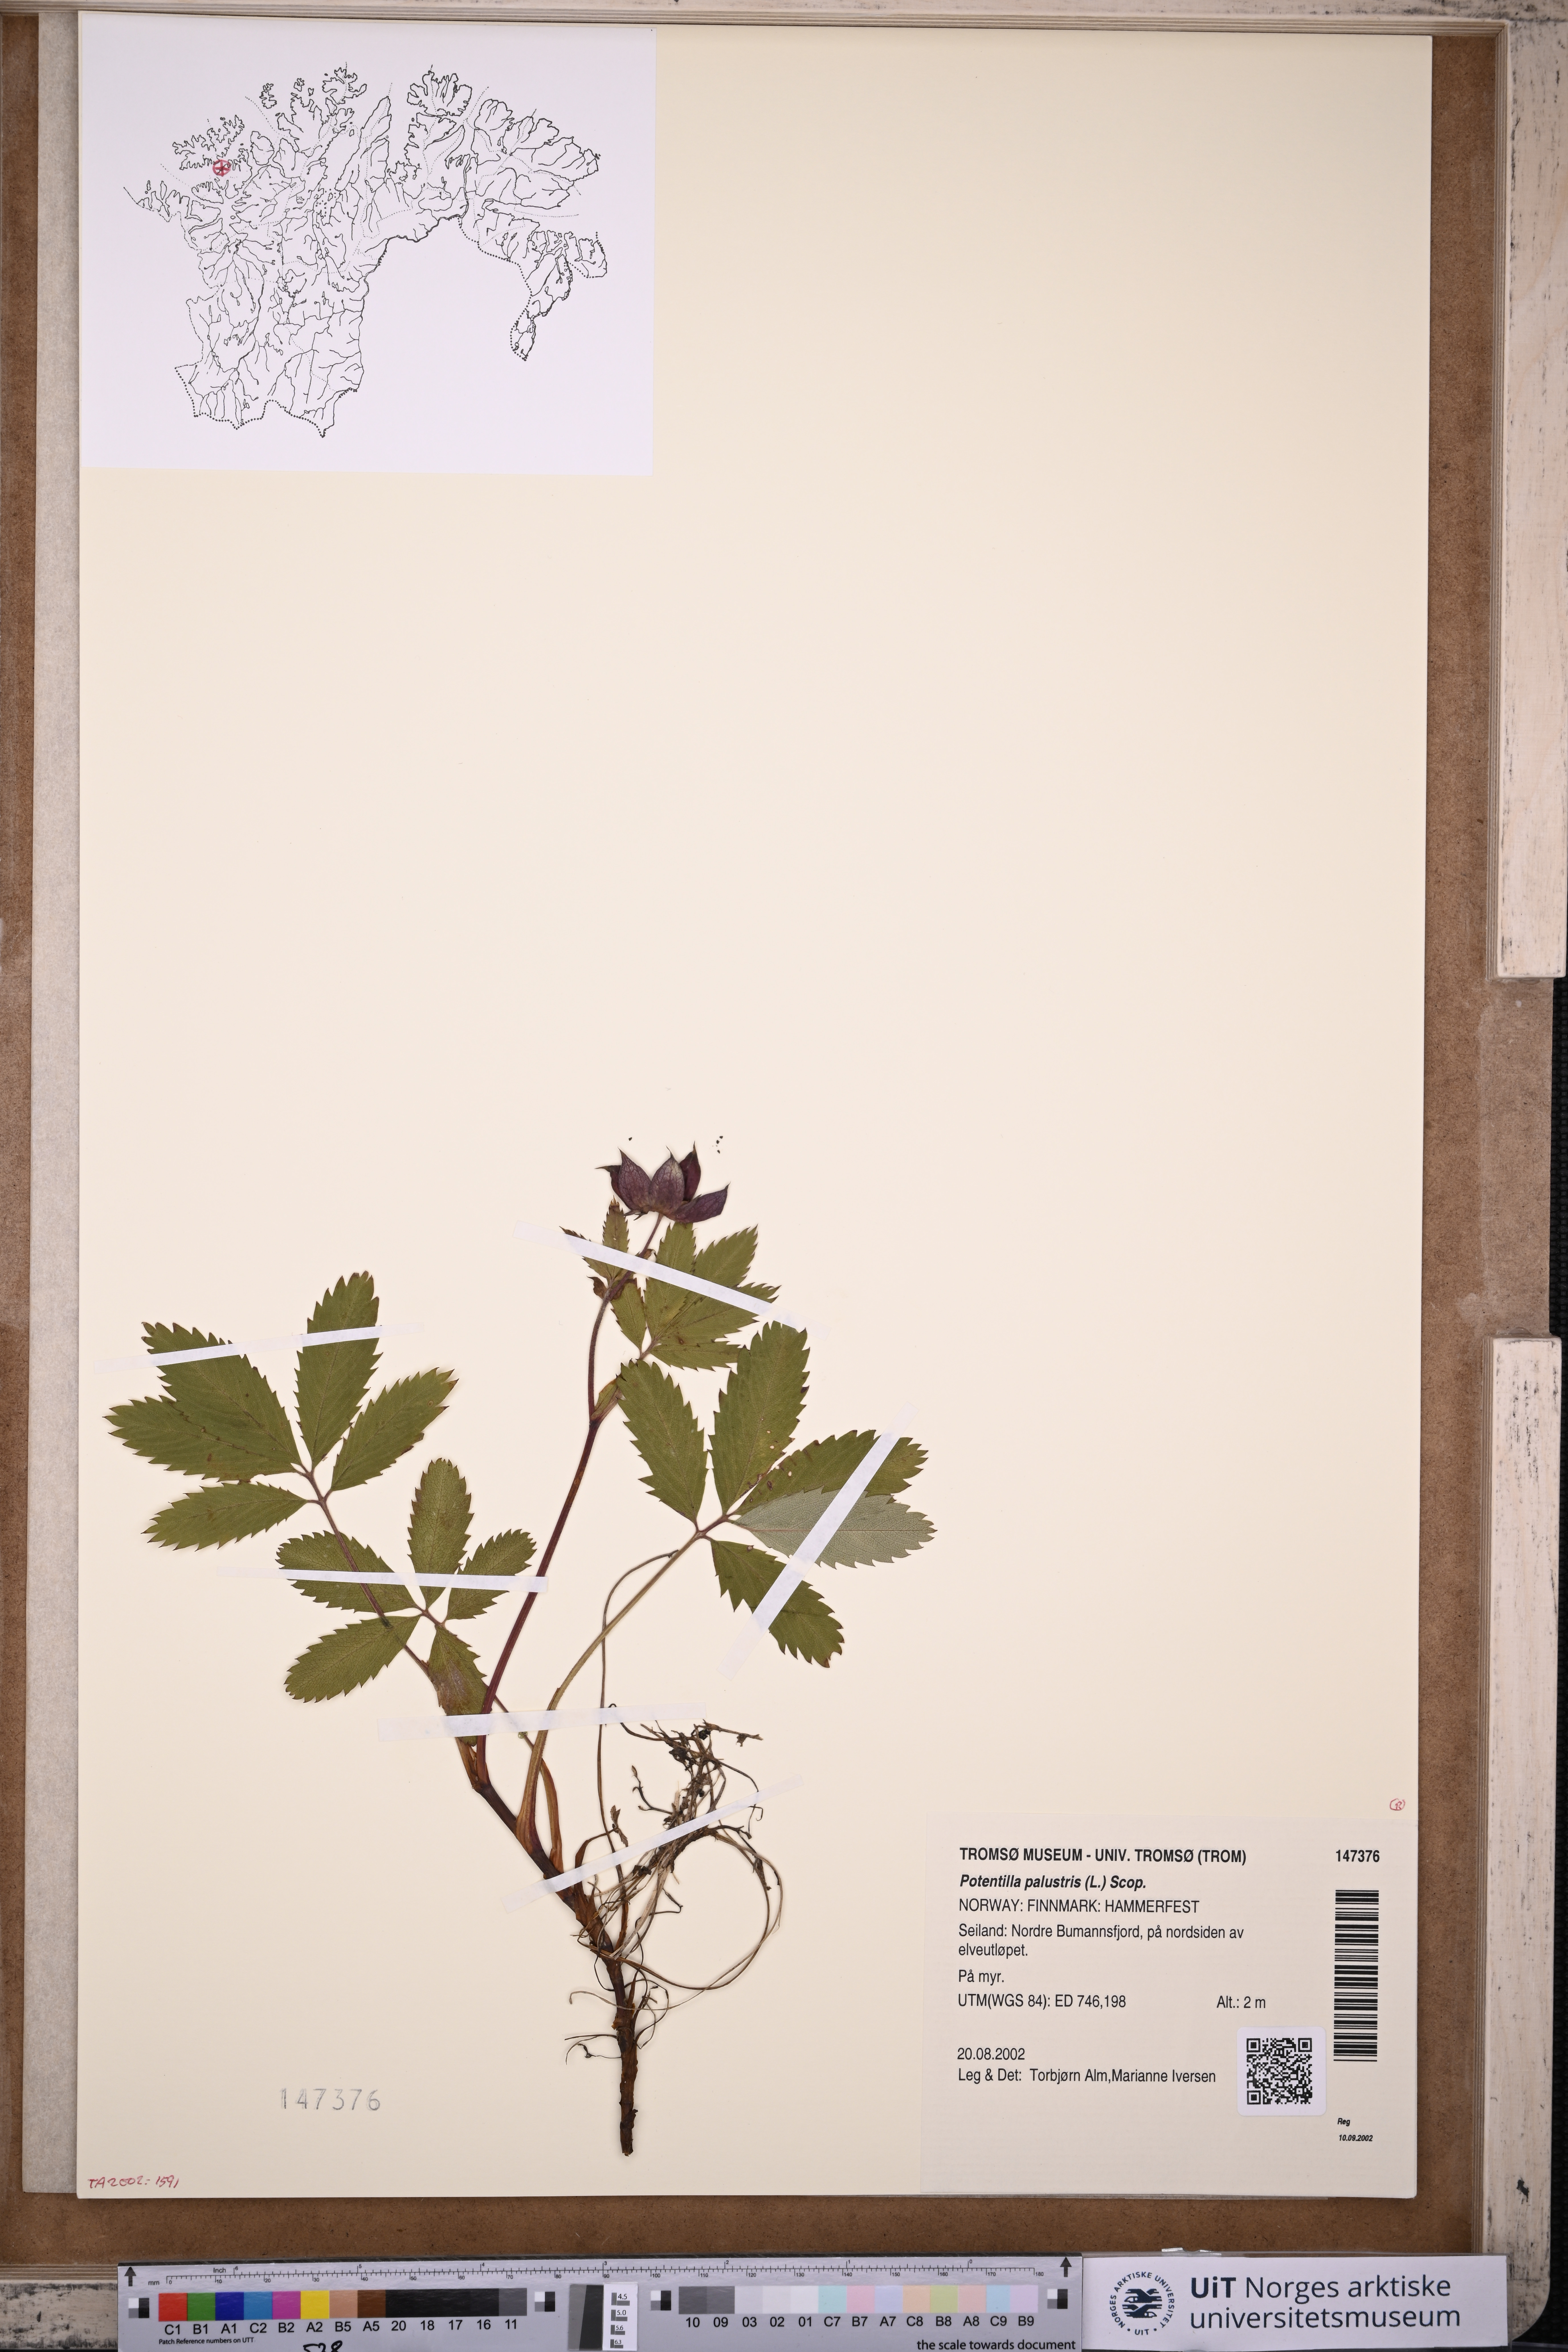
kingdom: Plantae
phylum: Tracheophyta
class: Magnoliopsida
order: Rosales
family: Rosaceae
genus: Comarum
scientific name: Comarum palustre
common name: Marsh cinquefoil
